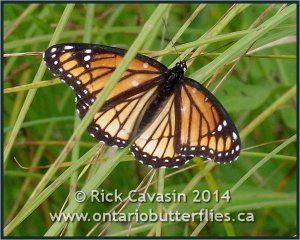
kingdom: Animalia
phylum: Arthropoda
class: Insecta
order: Lepidoptera
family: Nymphalidae
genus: Limenitis
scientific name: Limenitis archippus
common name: Viceroy
